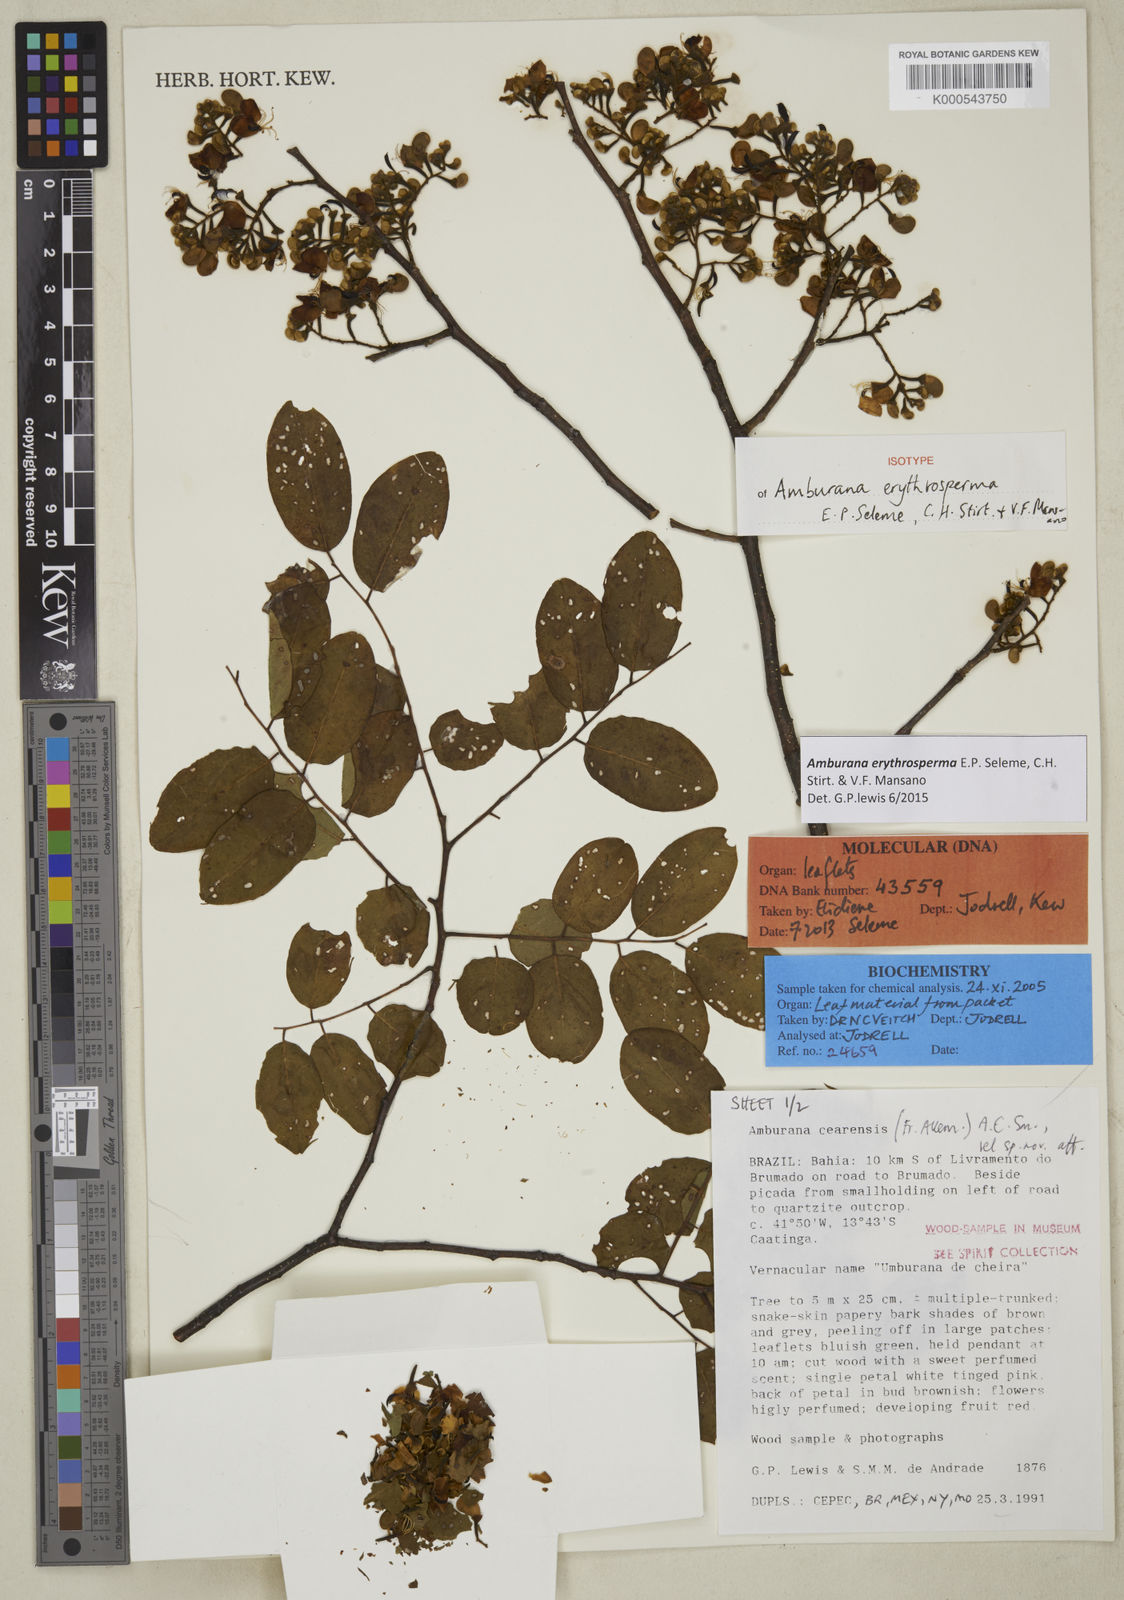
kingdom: Plantae
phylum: Tracheophyta
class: Magnoliopsida
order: Fabales
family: Fabaceae
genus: Amburana
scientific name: Amburana erythrosperma
